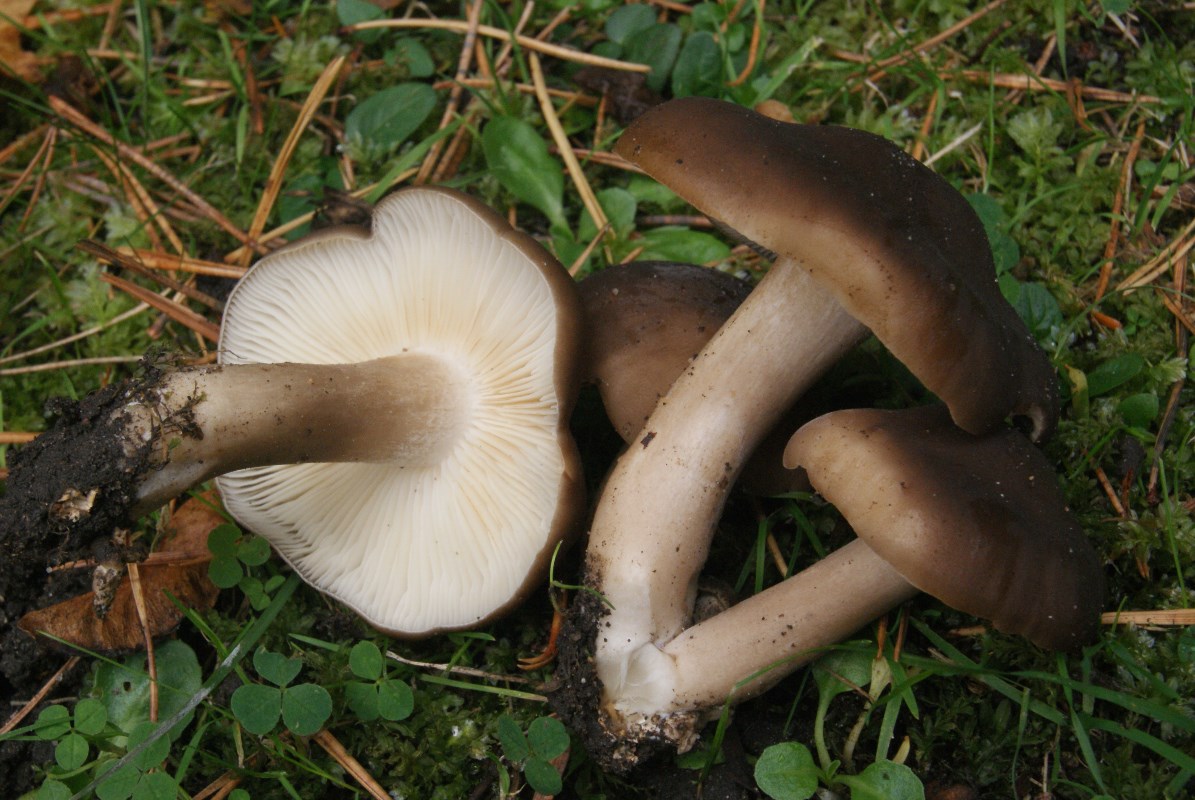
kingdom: Fungi
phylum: Basidiomycota
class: Agaricomycetes
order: Agaricales
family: Lyophyllaceae
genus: Lyophyllum
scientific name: Lyophyllum decastes
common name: Clustered domecap
